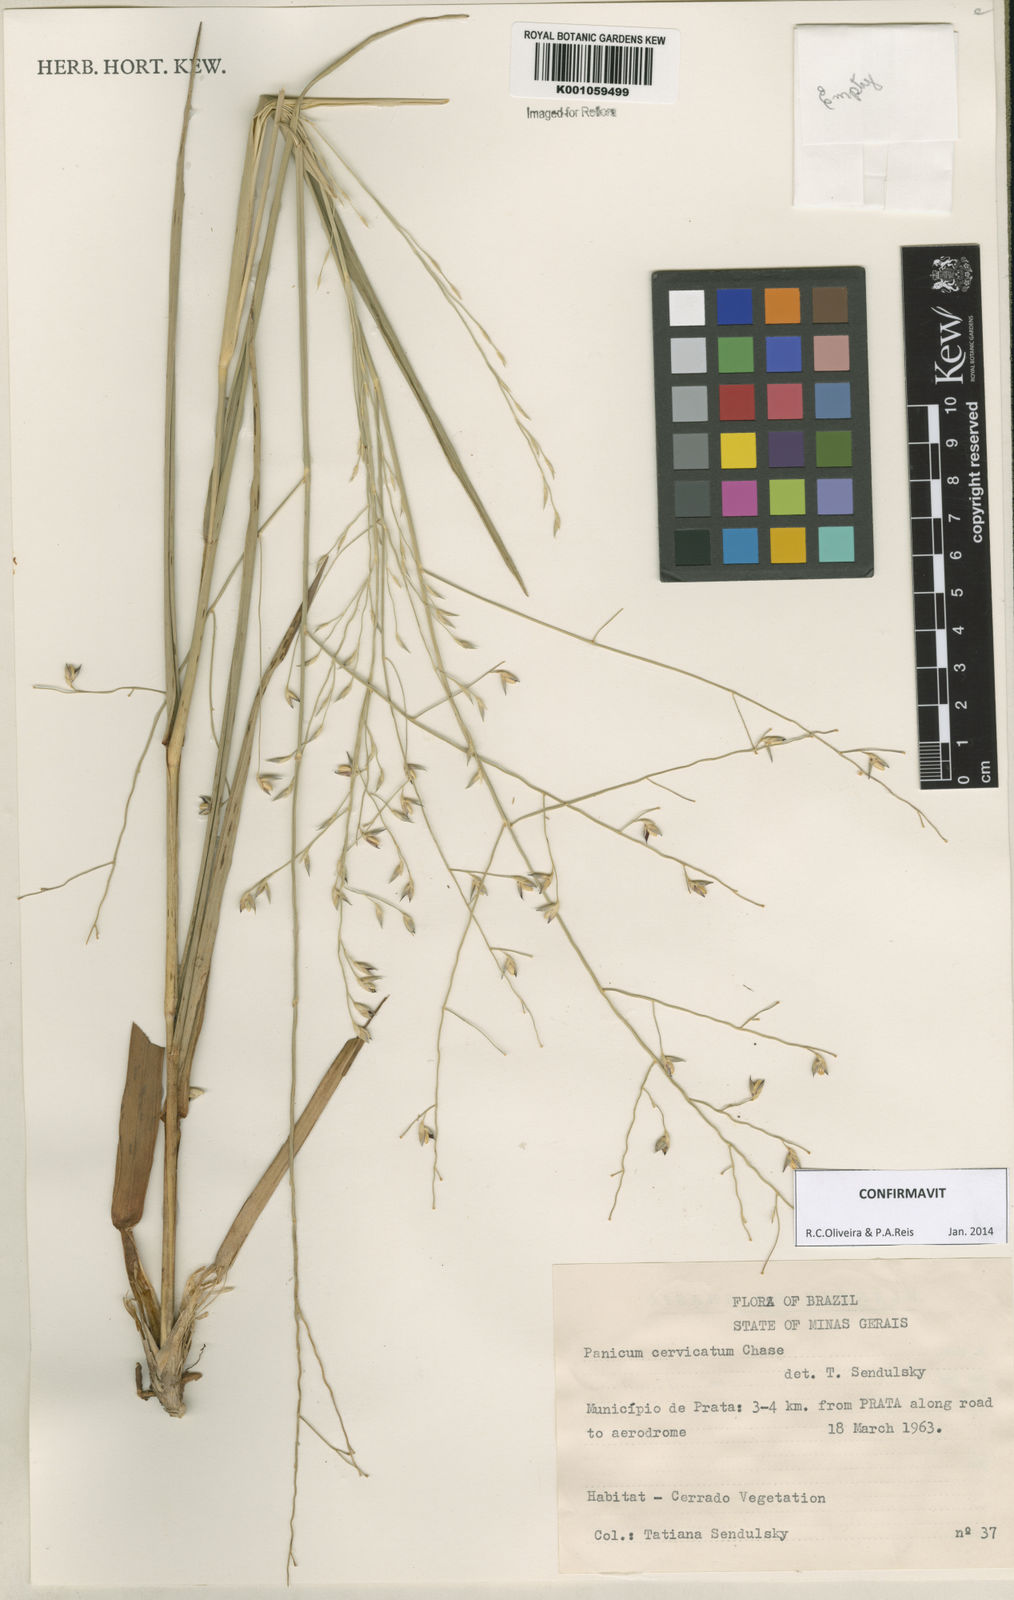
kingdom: Plantae
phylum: Tracheophyta
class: Liliopsida
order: Poales
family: Poaceae
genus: Panicum
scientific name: Panicum cervicatum
